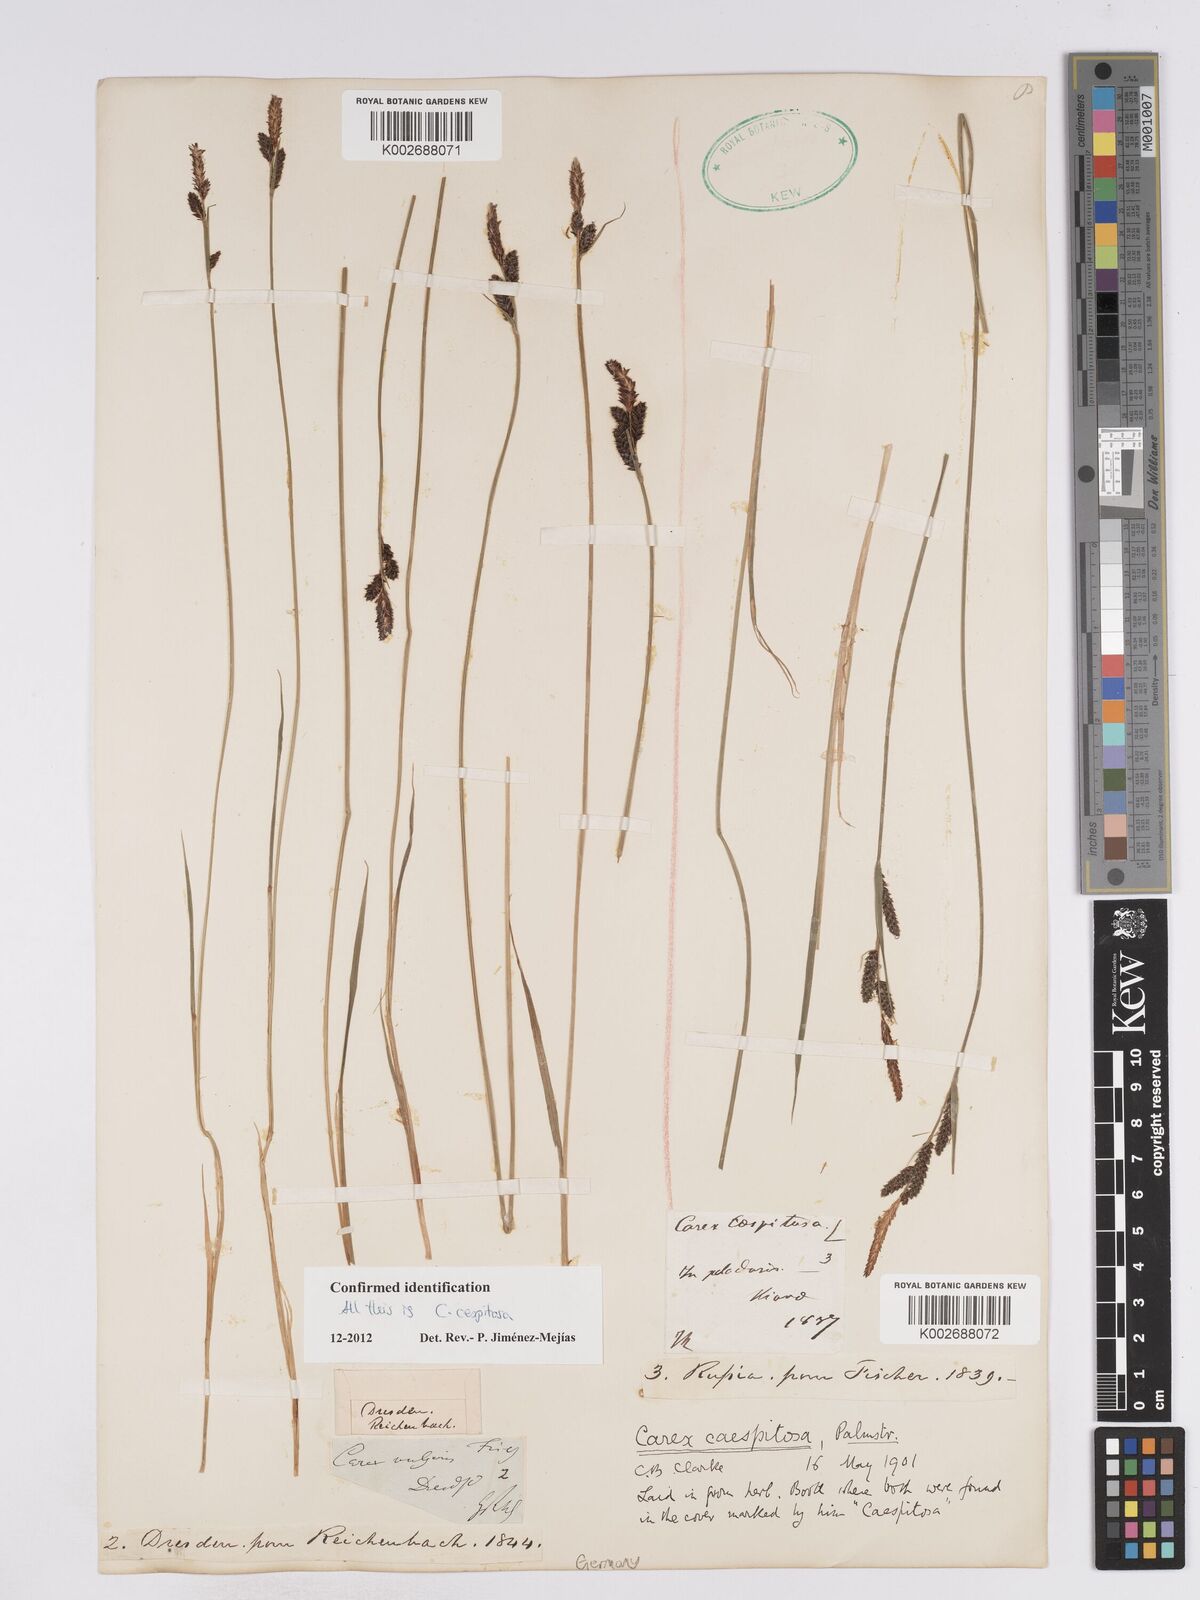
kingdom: Plantae
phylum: Tracheophyta
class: Liliopsida
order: Poales
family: Cyperaceae
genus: Carex
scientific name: Carex
